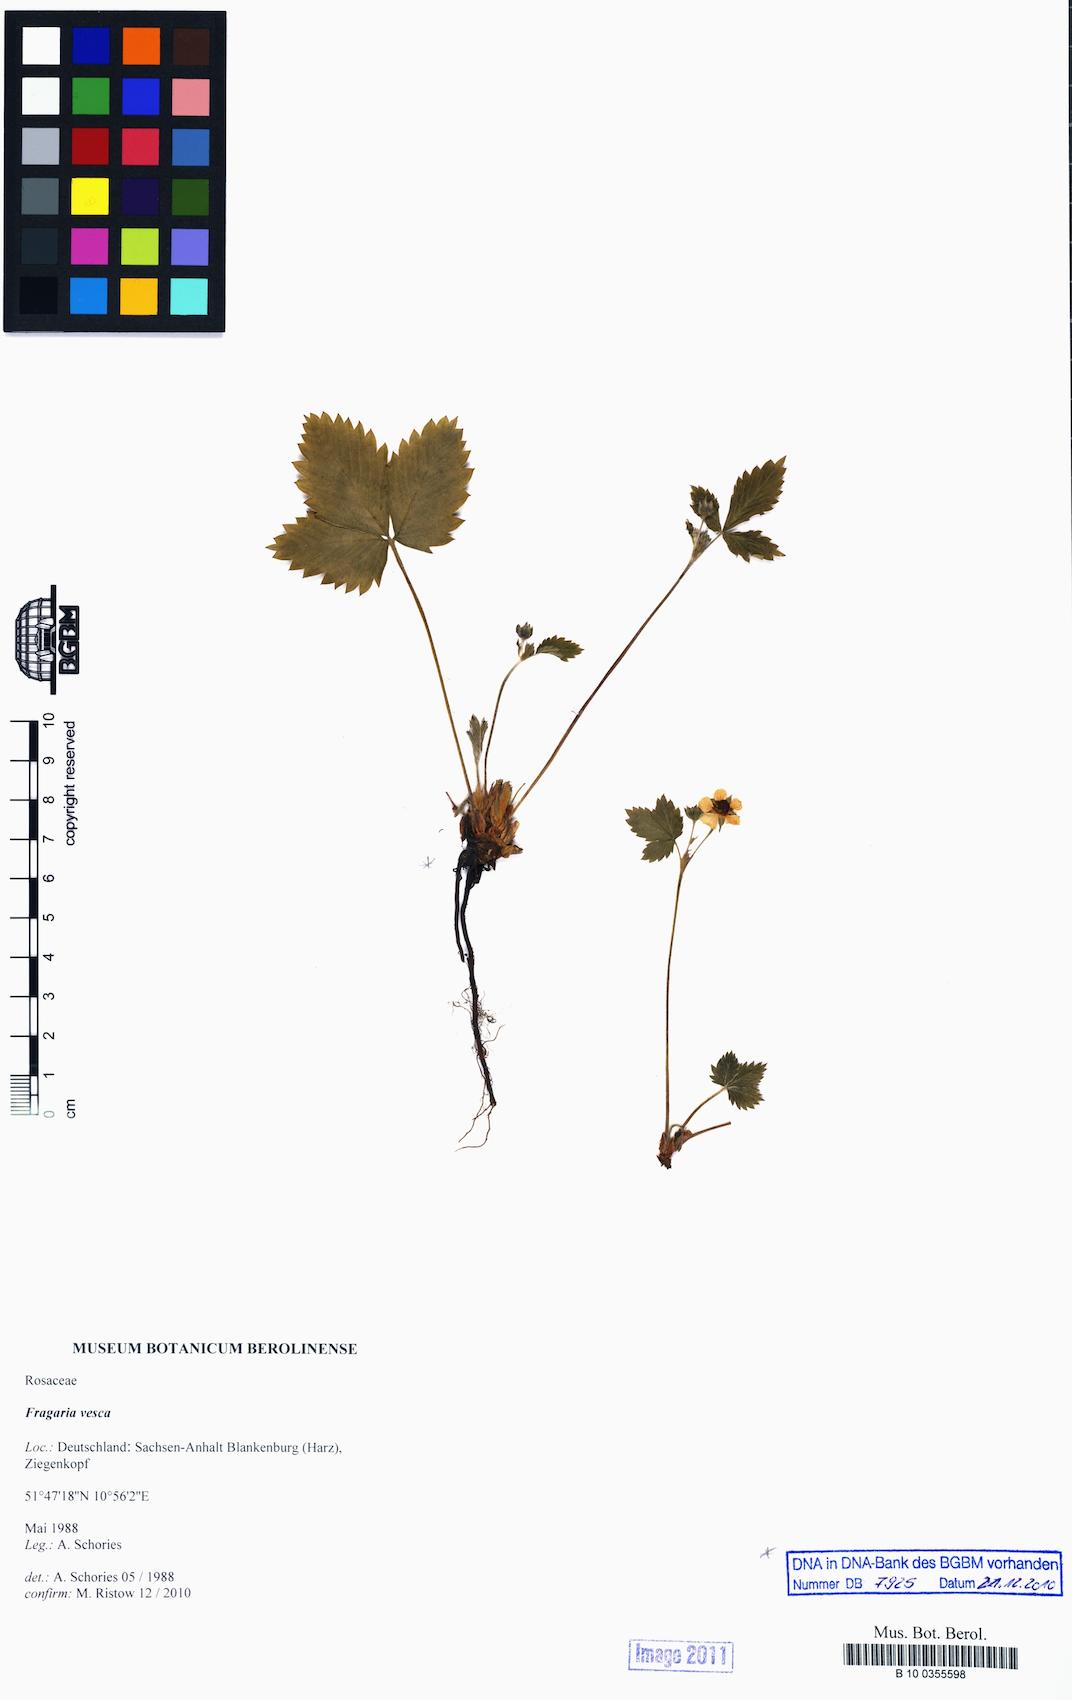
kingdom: Plantae
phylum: Tracheophyta
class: Magnoliopsida
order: Rosales
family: Rosaceae
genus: Fragaria
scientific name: Fragaria vesca
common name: Wild strawberry
